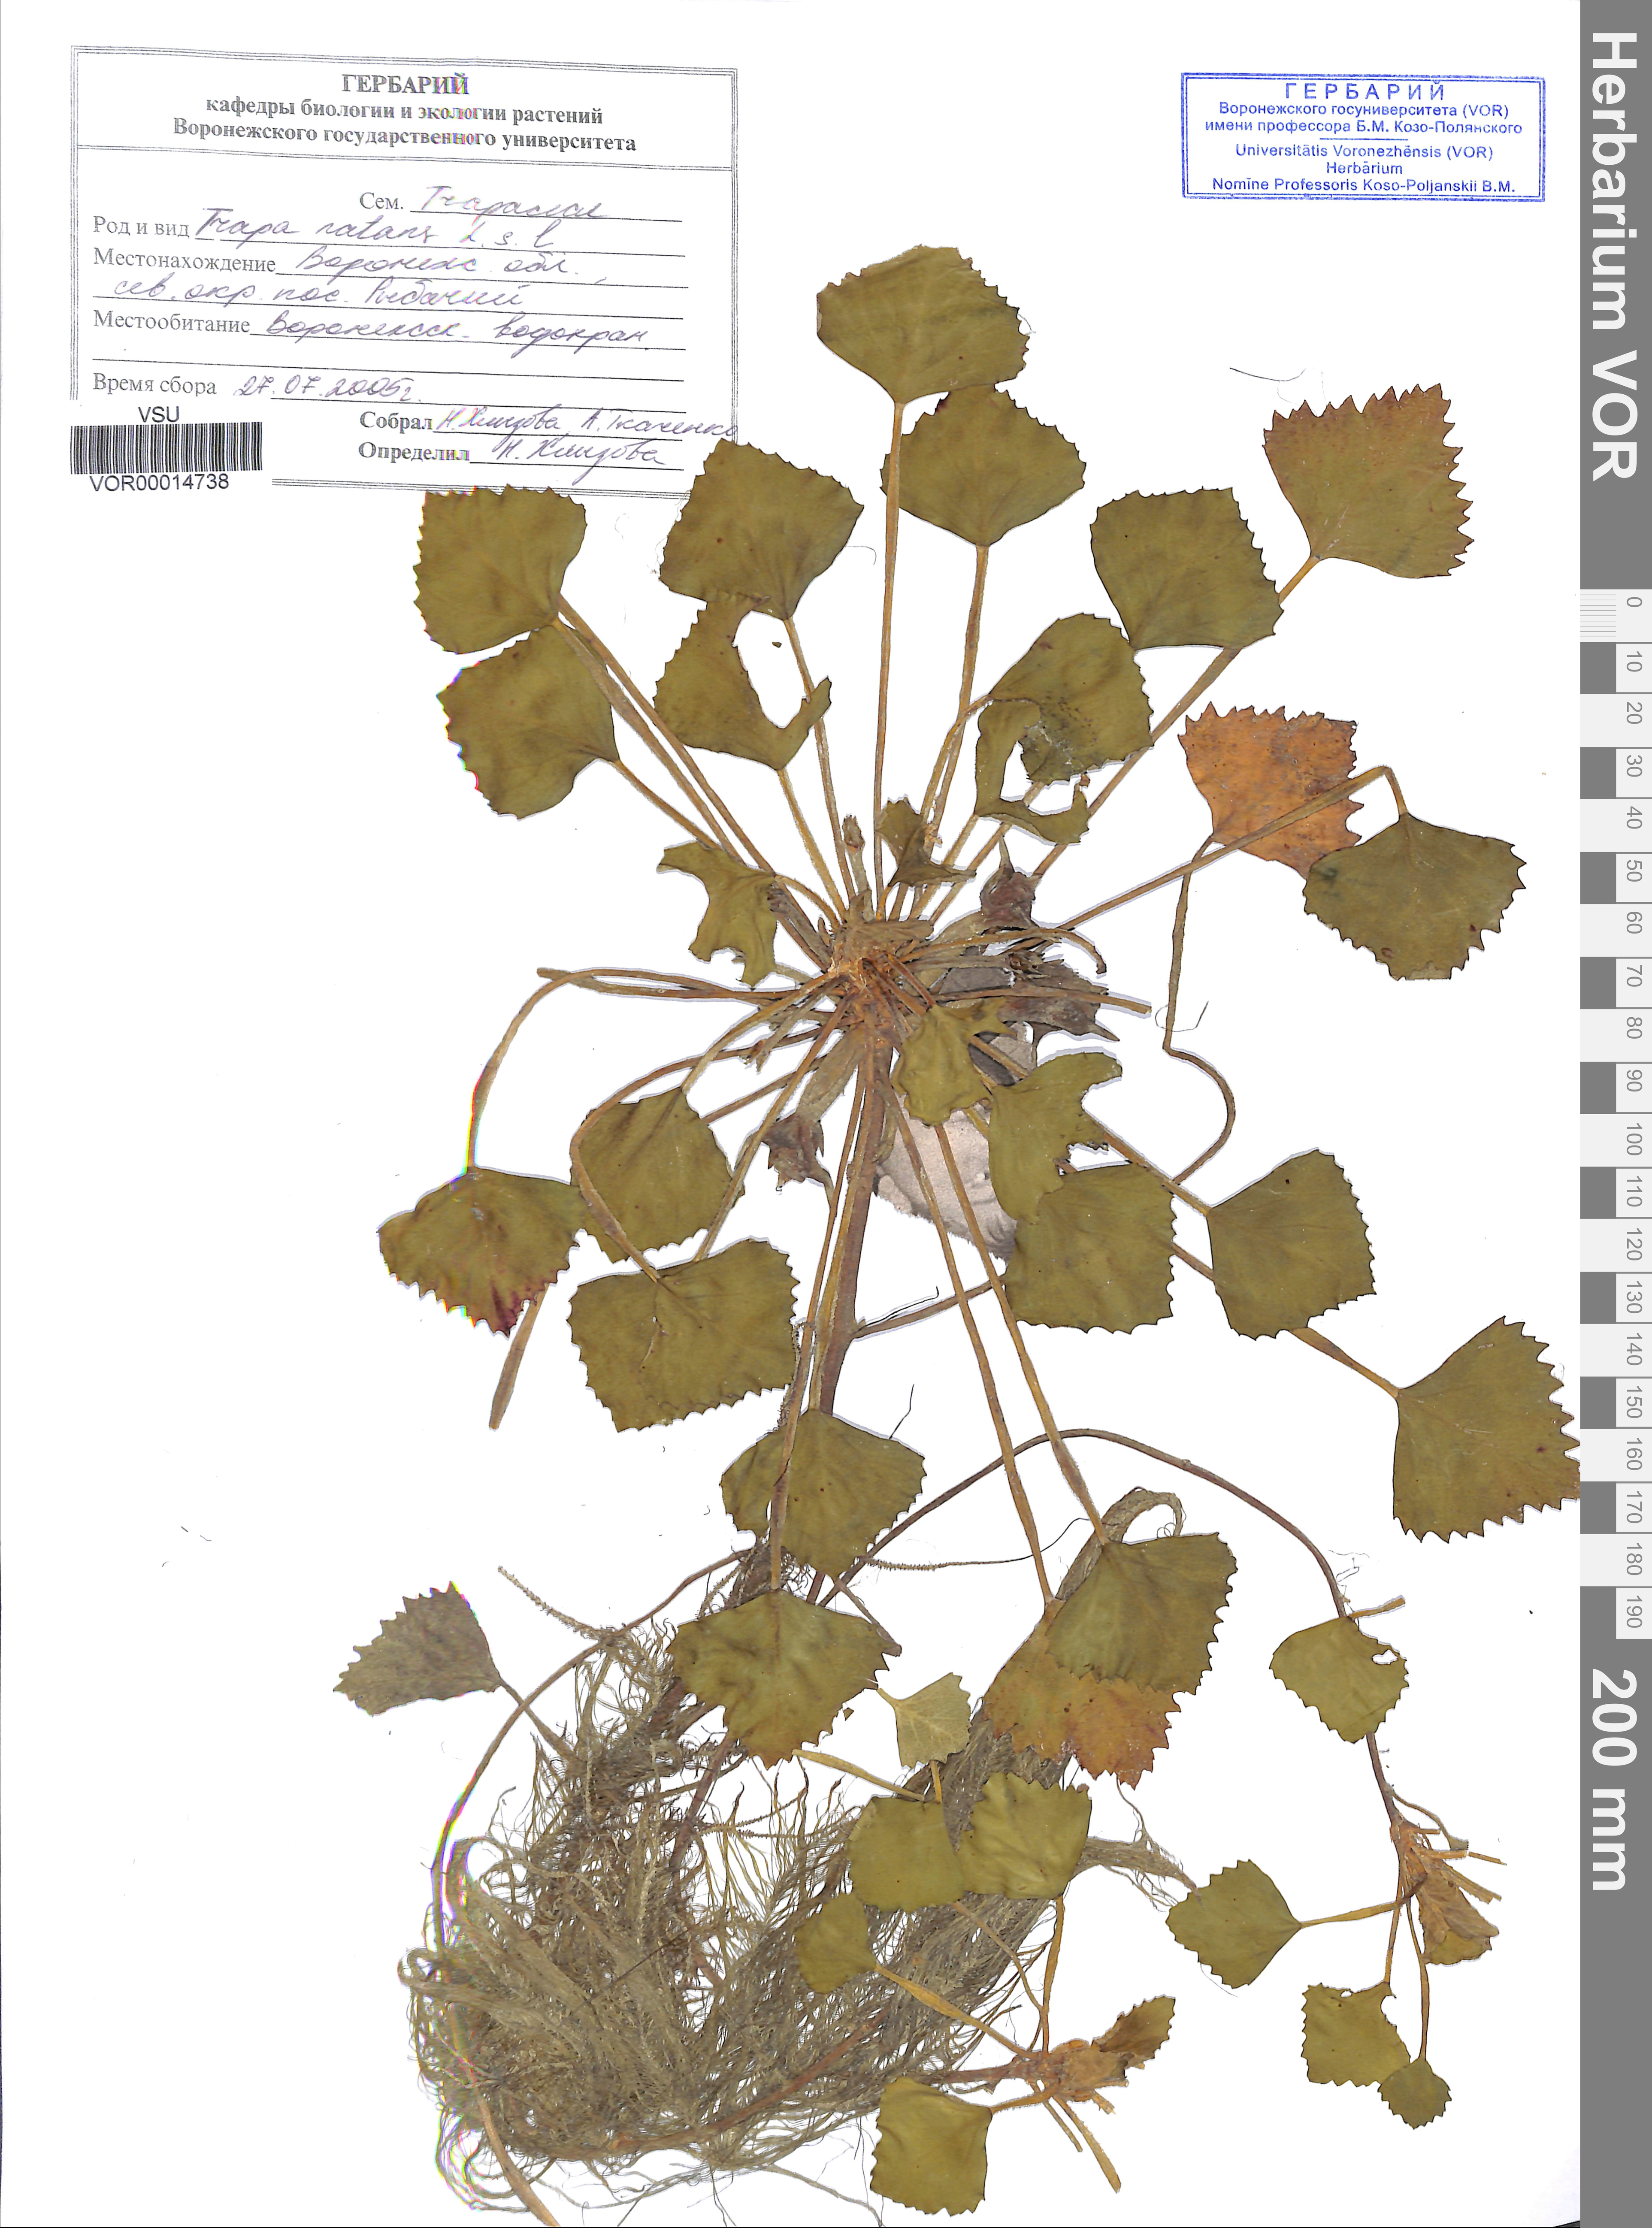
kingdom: Plantae
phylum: Tracheophyta
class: Magnoliopsida
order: Myrtales
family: Lythraceae
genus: Trapa
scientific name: Trapa natans
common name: Water chestnut
